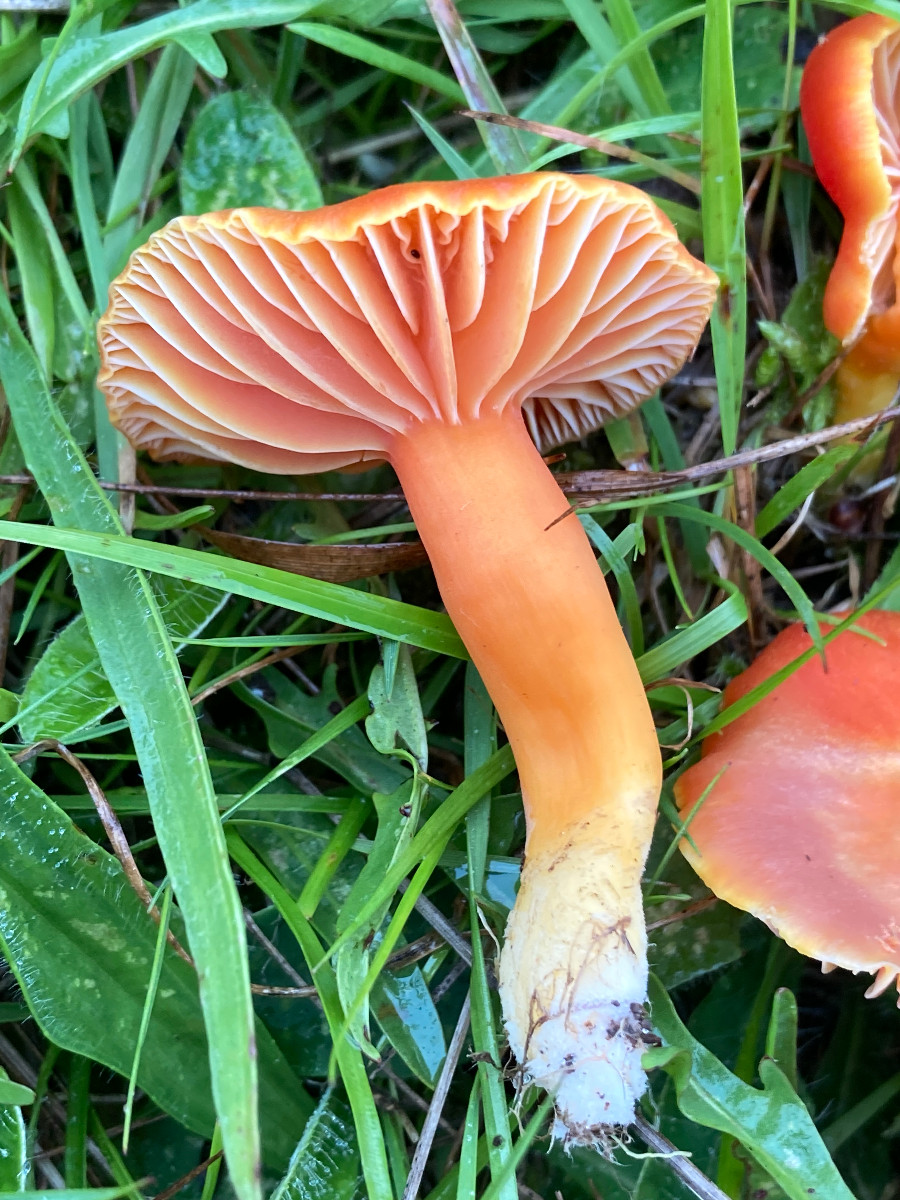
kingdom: Fungi
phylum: Basidiomycota
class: Agaricomycetes
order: Agaricales
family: Hygrophoraceae
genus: Hygrocybe
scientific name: Hygrocybe
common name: vokshat
